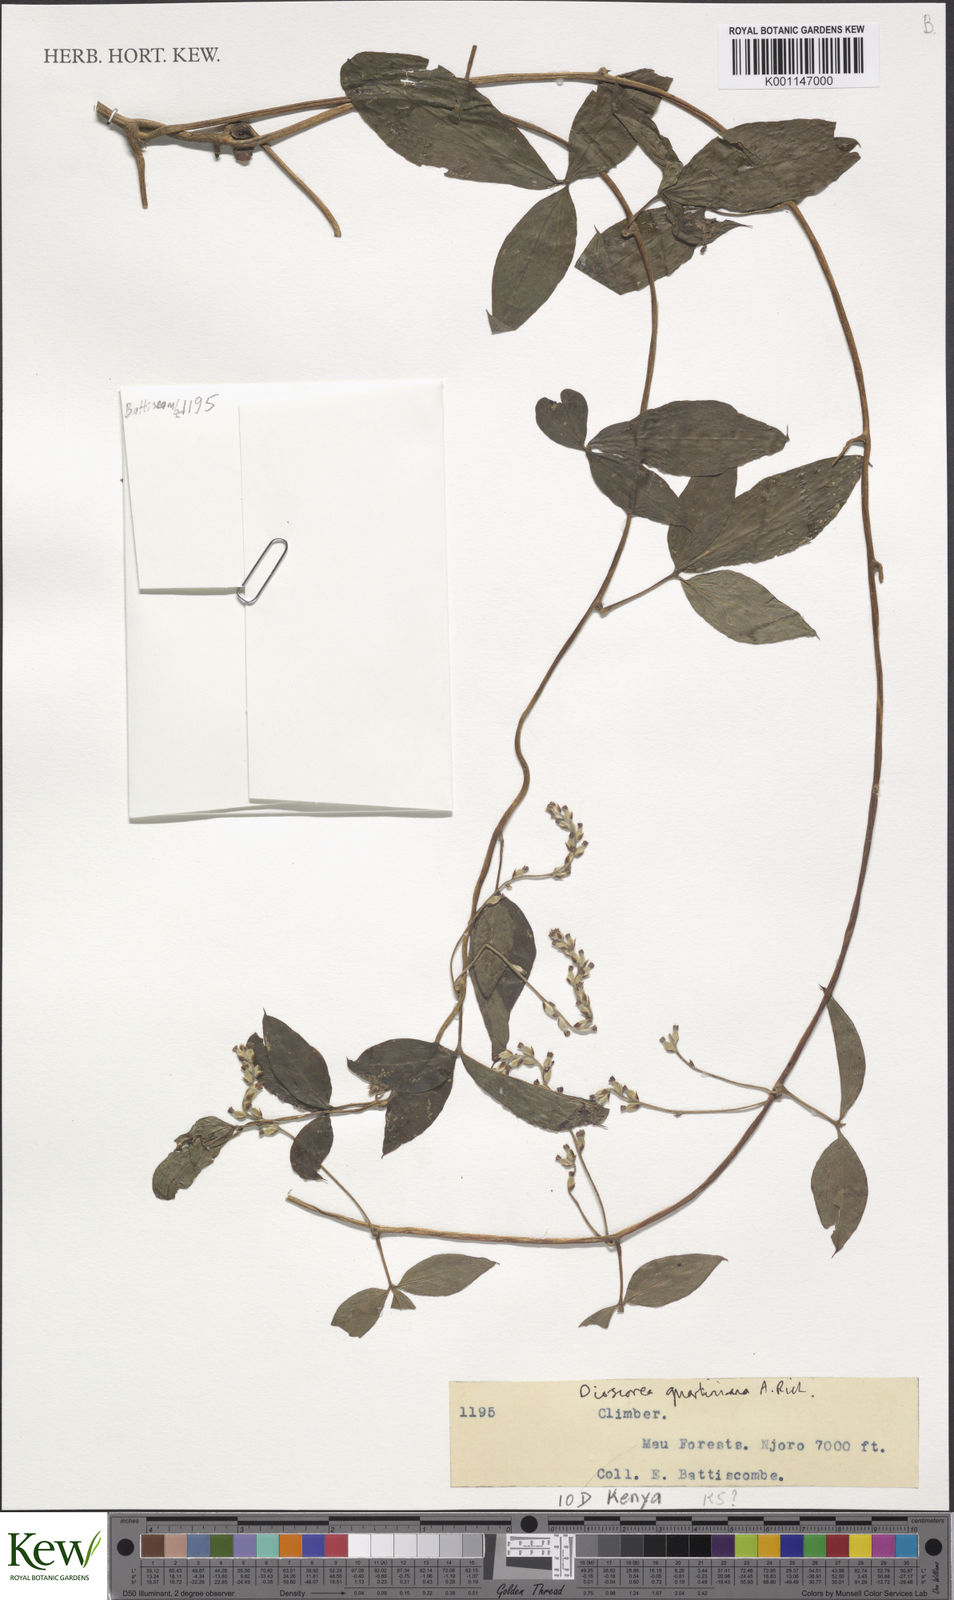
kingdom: Plantae
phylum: Tracheophyta
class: Liliopsida
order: Dioscoreales
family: Dioscoreaceae
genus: Dioscorea
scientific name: Dioscorea quartiniana
